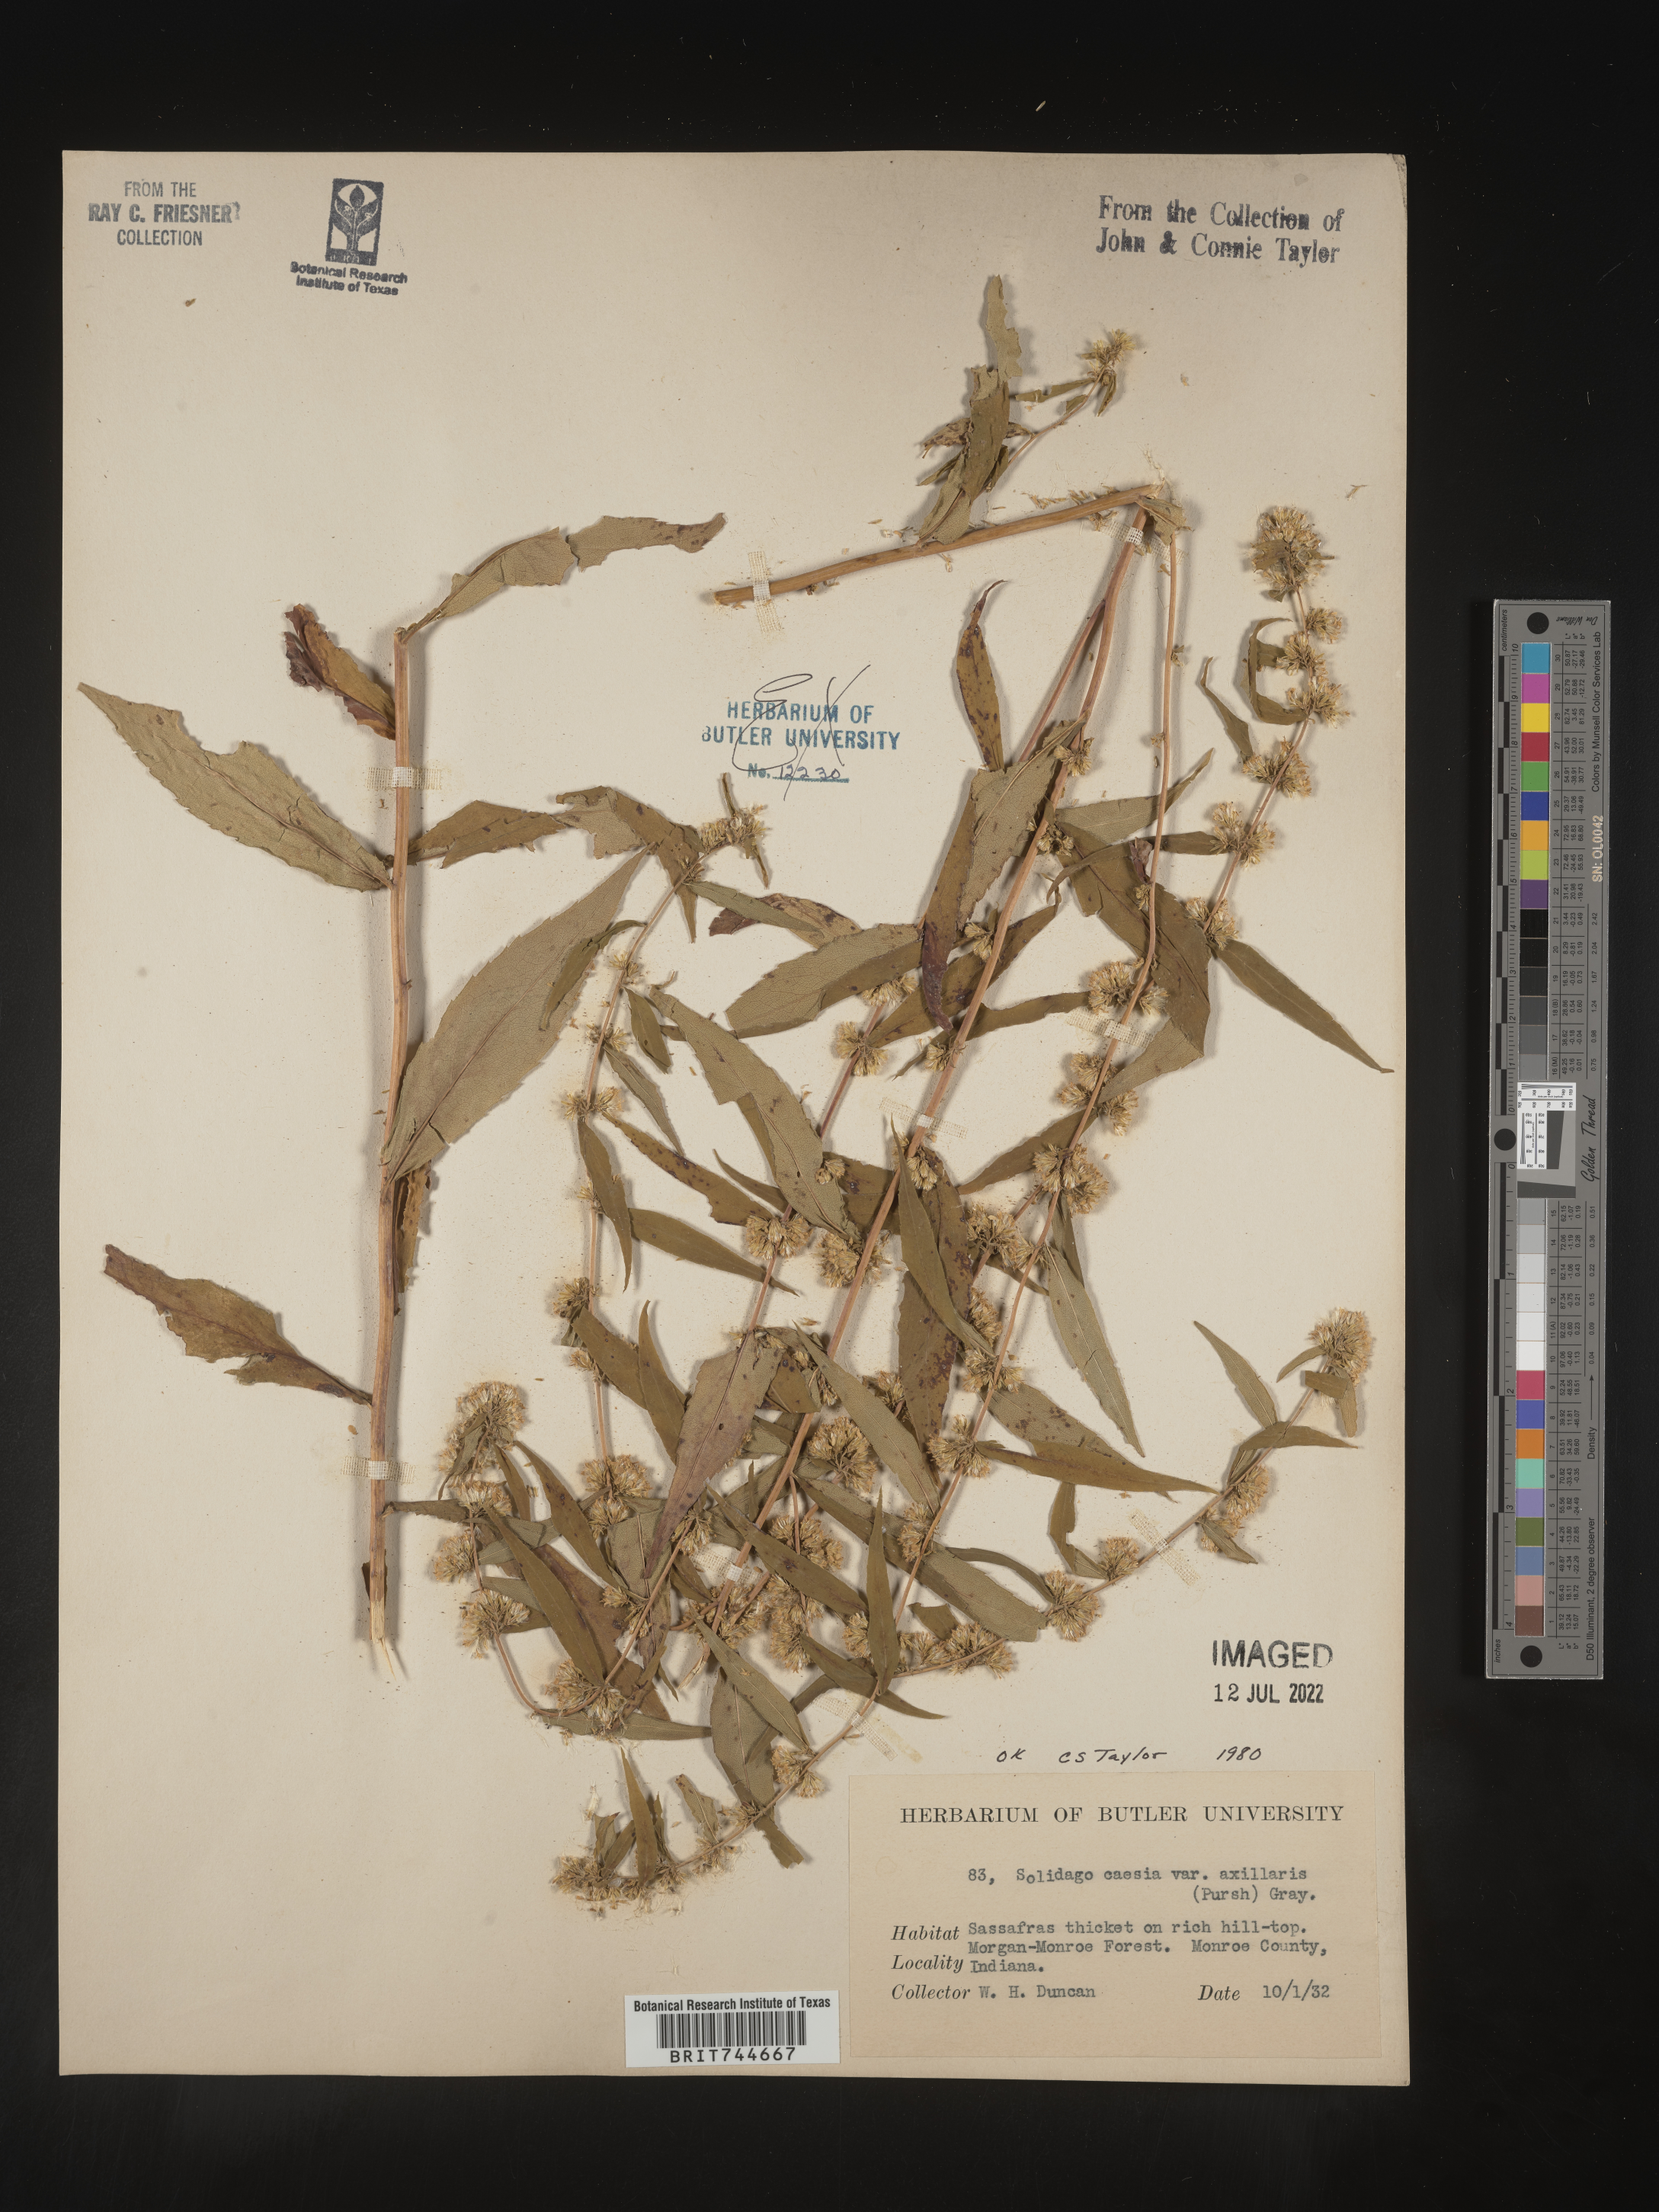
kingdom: Plantae
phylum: Tracheophyta
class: Magnoliopsida
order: Asterales
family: Asteraceae
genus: Solidago
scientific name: Solidago caesia
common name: Woodland goldenrod
